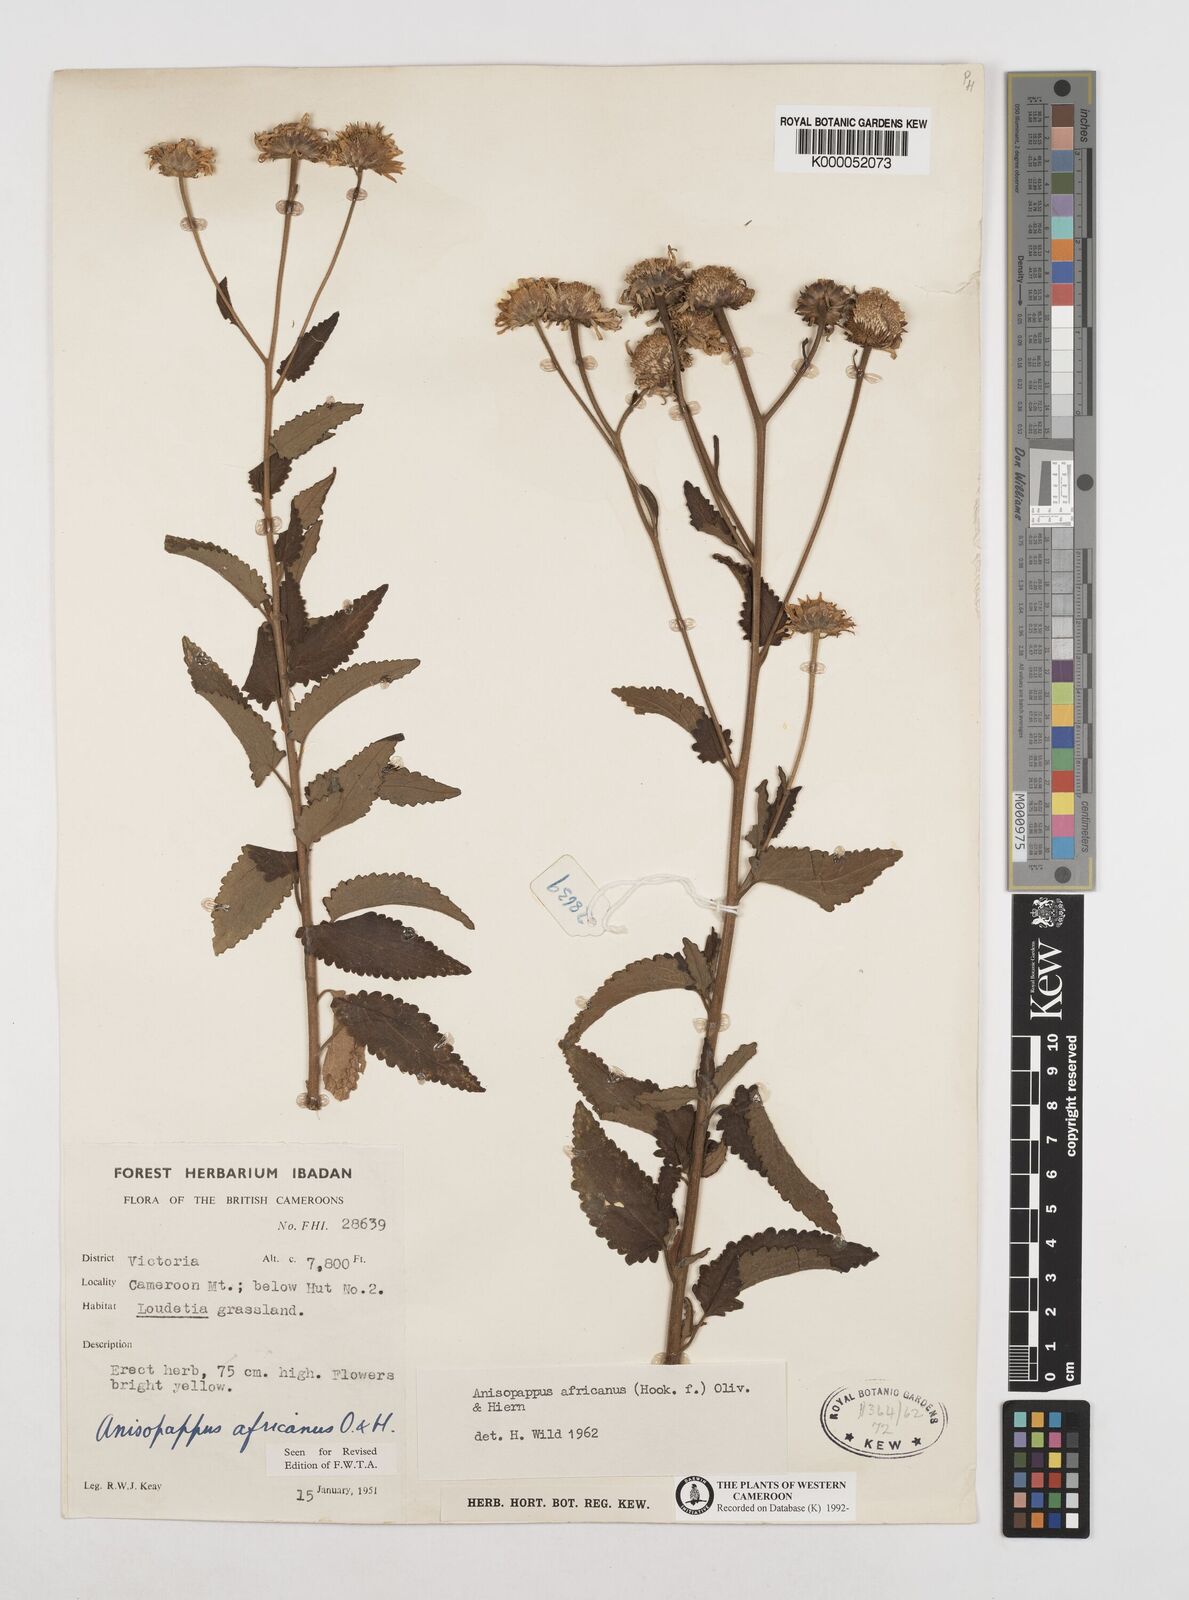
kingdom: Plantae
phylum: Tracheophyta
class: Magnoliopsida
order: Asterales
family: Asteraceae
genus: Anisopappus
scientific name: Anisopappus chinensis
